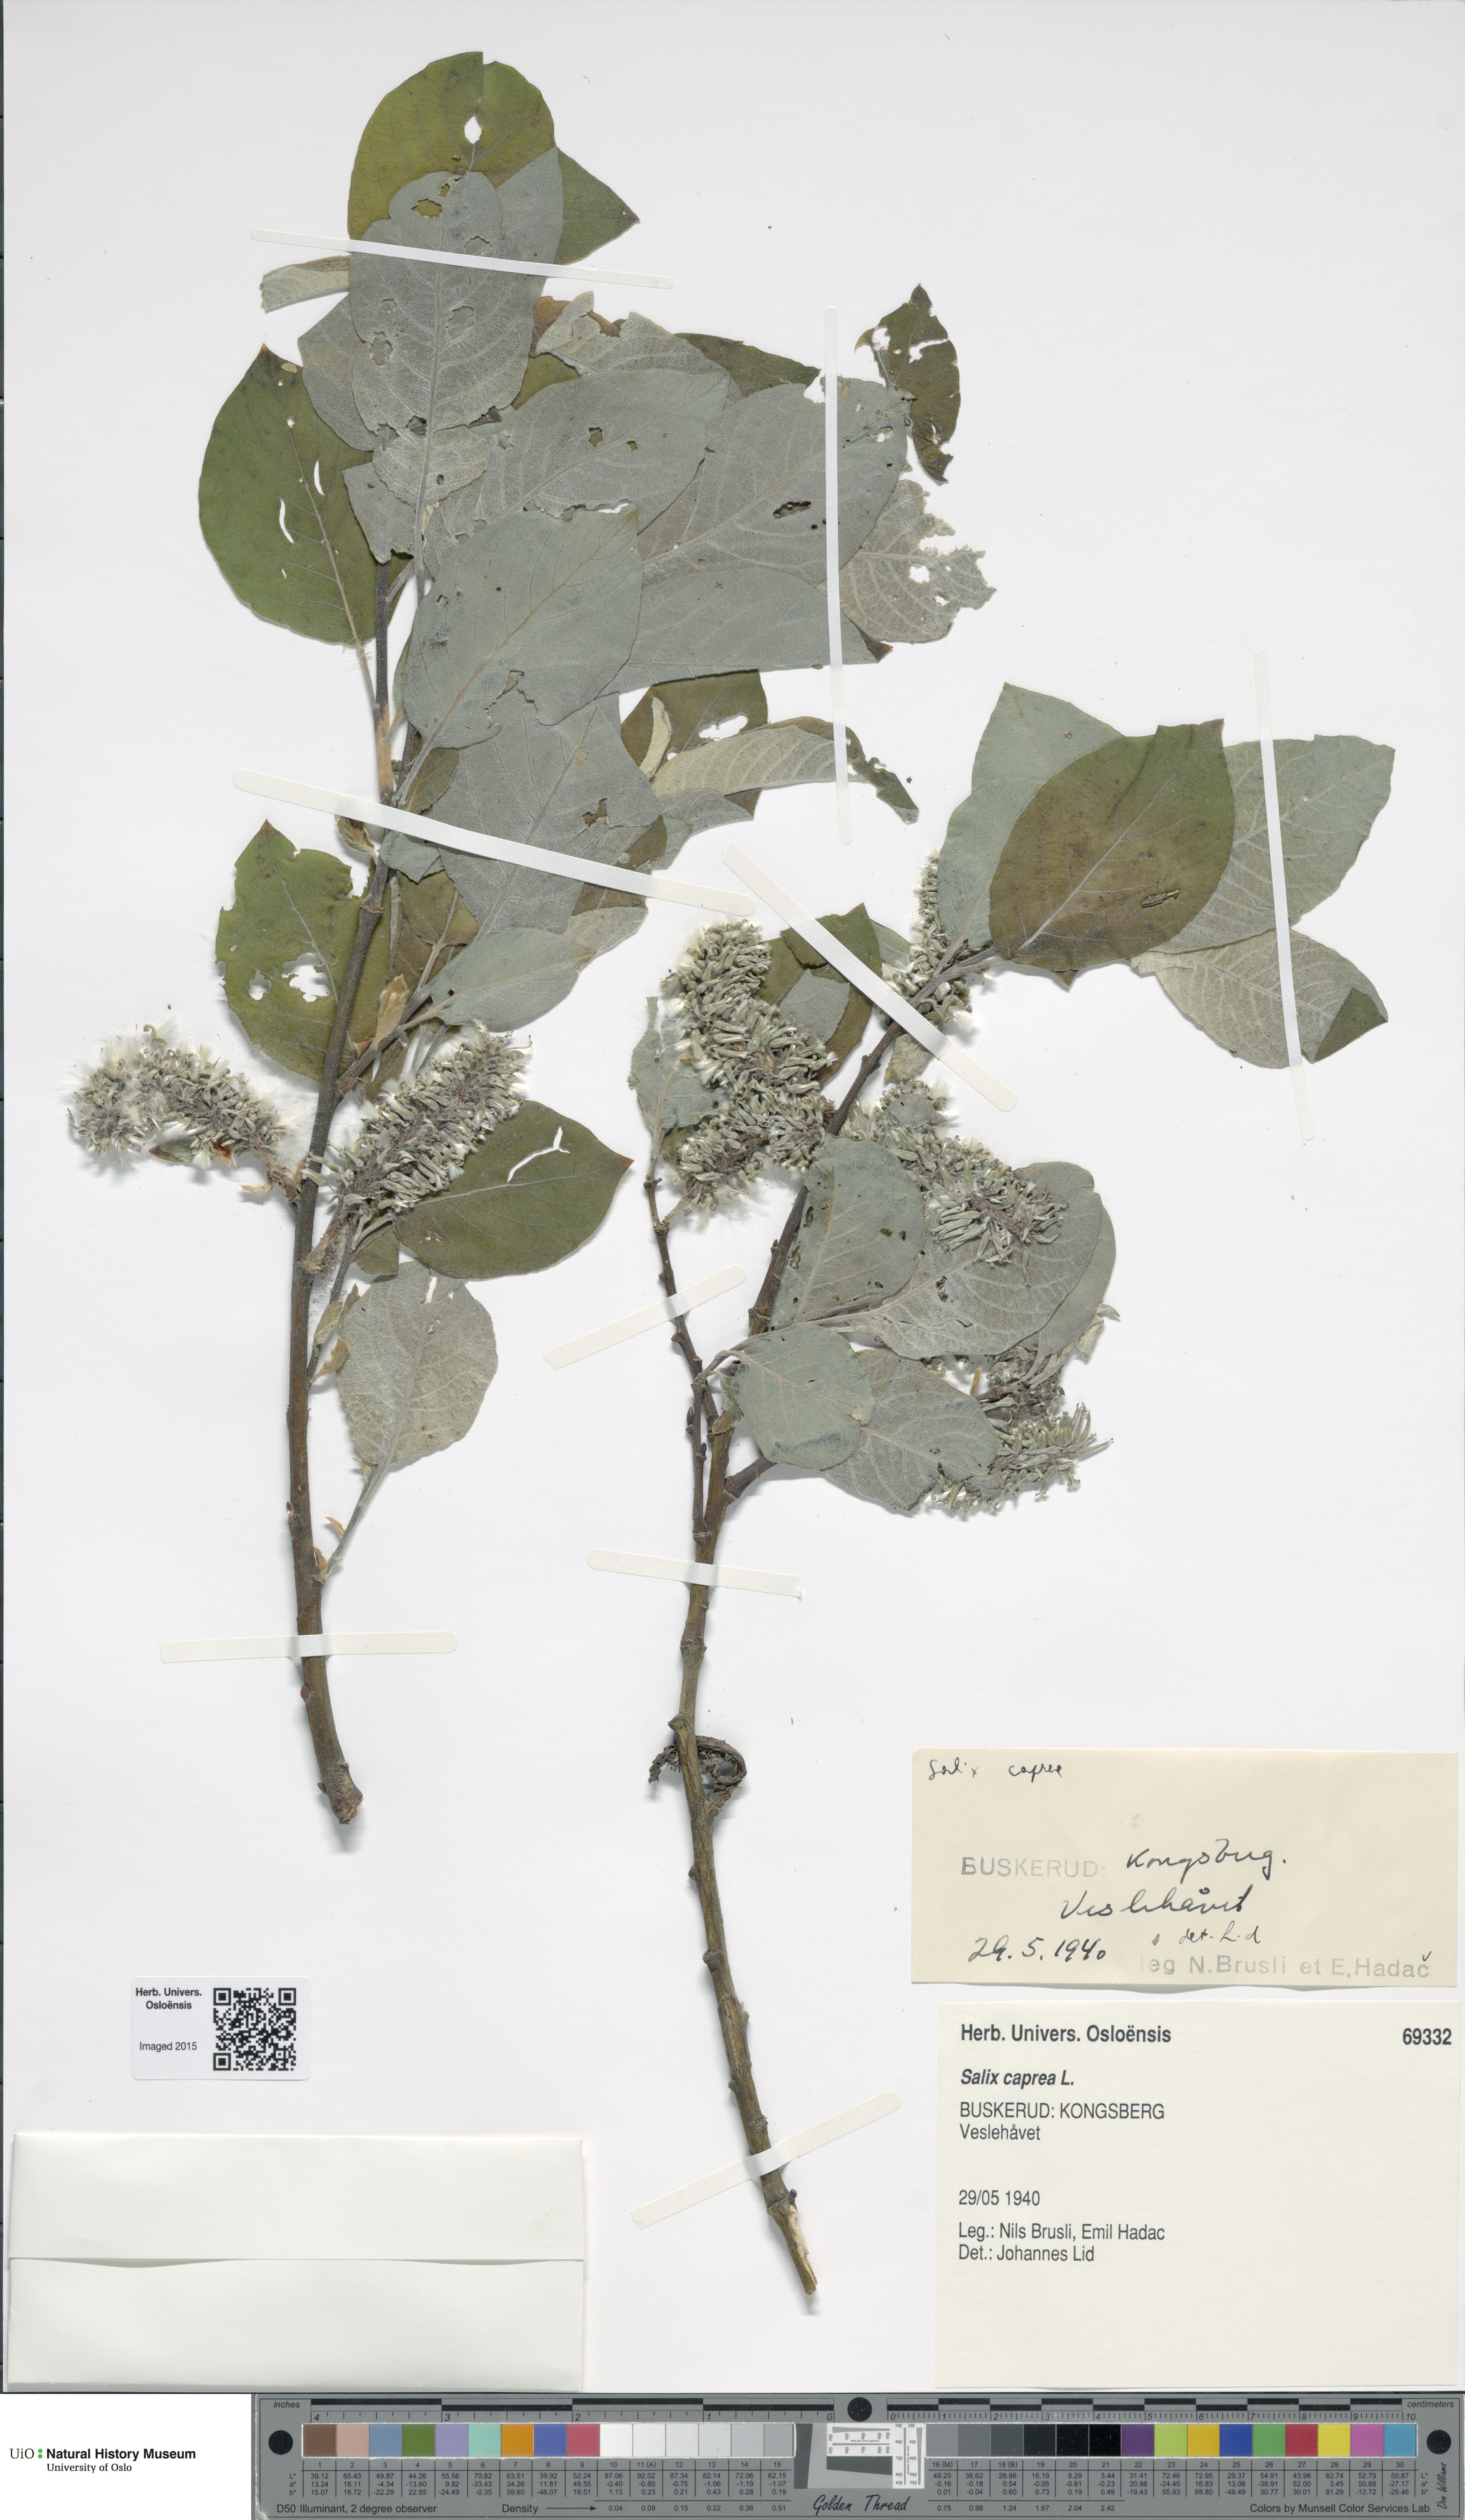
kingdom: Plantae
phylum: Tracheophyta
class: Magnoliopsida
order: Malpighiales
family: Salicaceae
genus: Salix
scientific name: Salix caprea
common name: Goat willow
